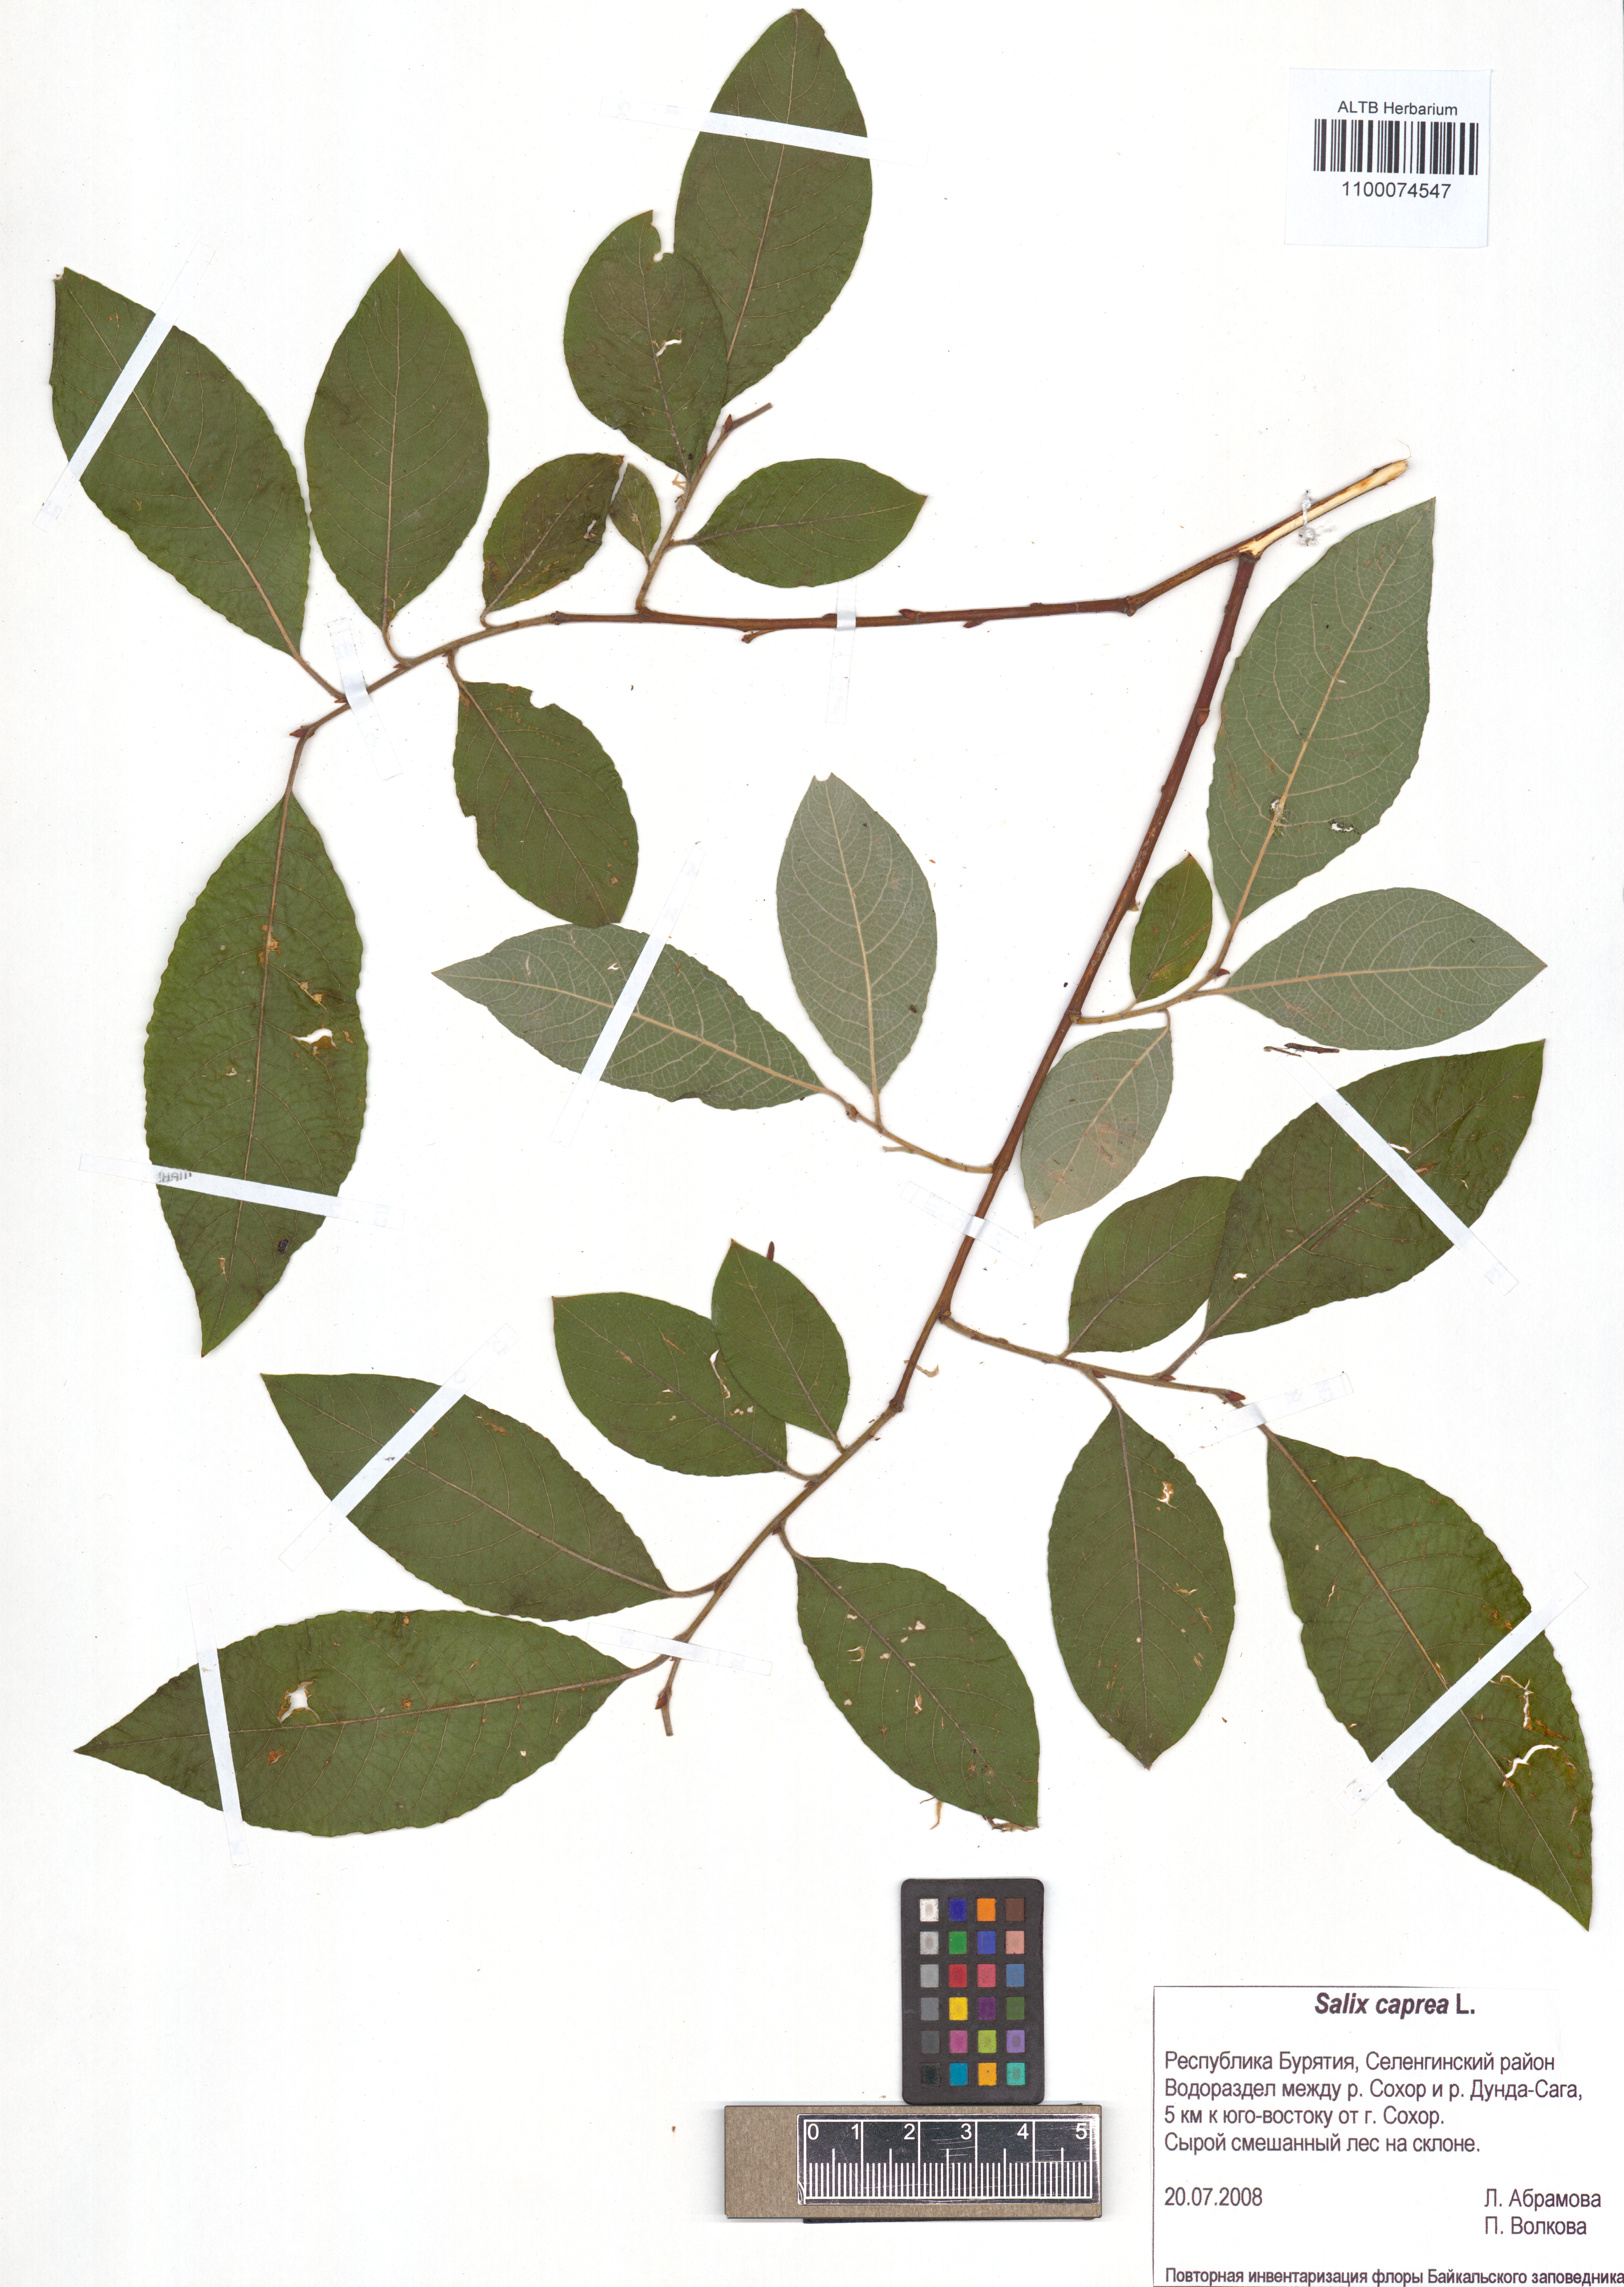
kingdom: Plantae
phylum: Tracheophyta
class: Magnoliopsida
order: Malpighiales
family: Salicaceae
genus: Salix
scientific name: Salix caprea
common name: Goat willow
